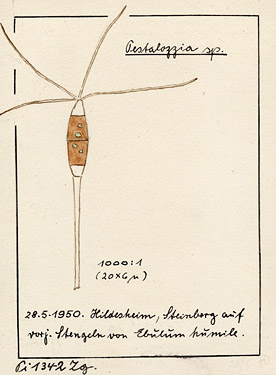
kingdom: Plantae
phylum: Tracheophyta
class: Magnoliopsida
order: Dipsacales
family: Viburnaceae
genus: Sambucus
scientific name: Sambucus ebulus
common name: Dwarf elder
